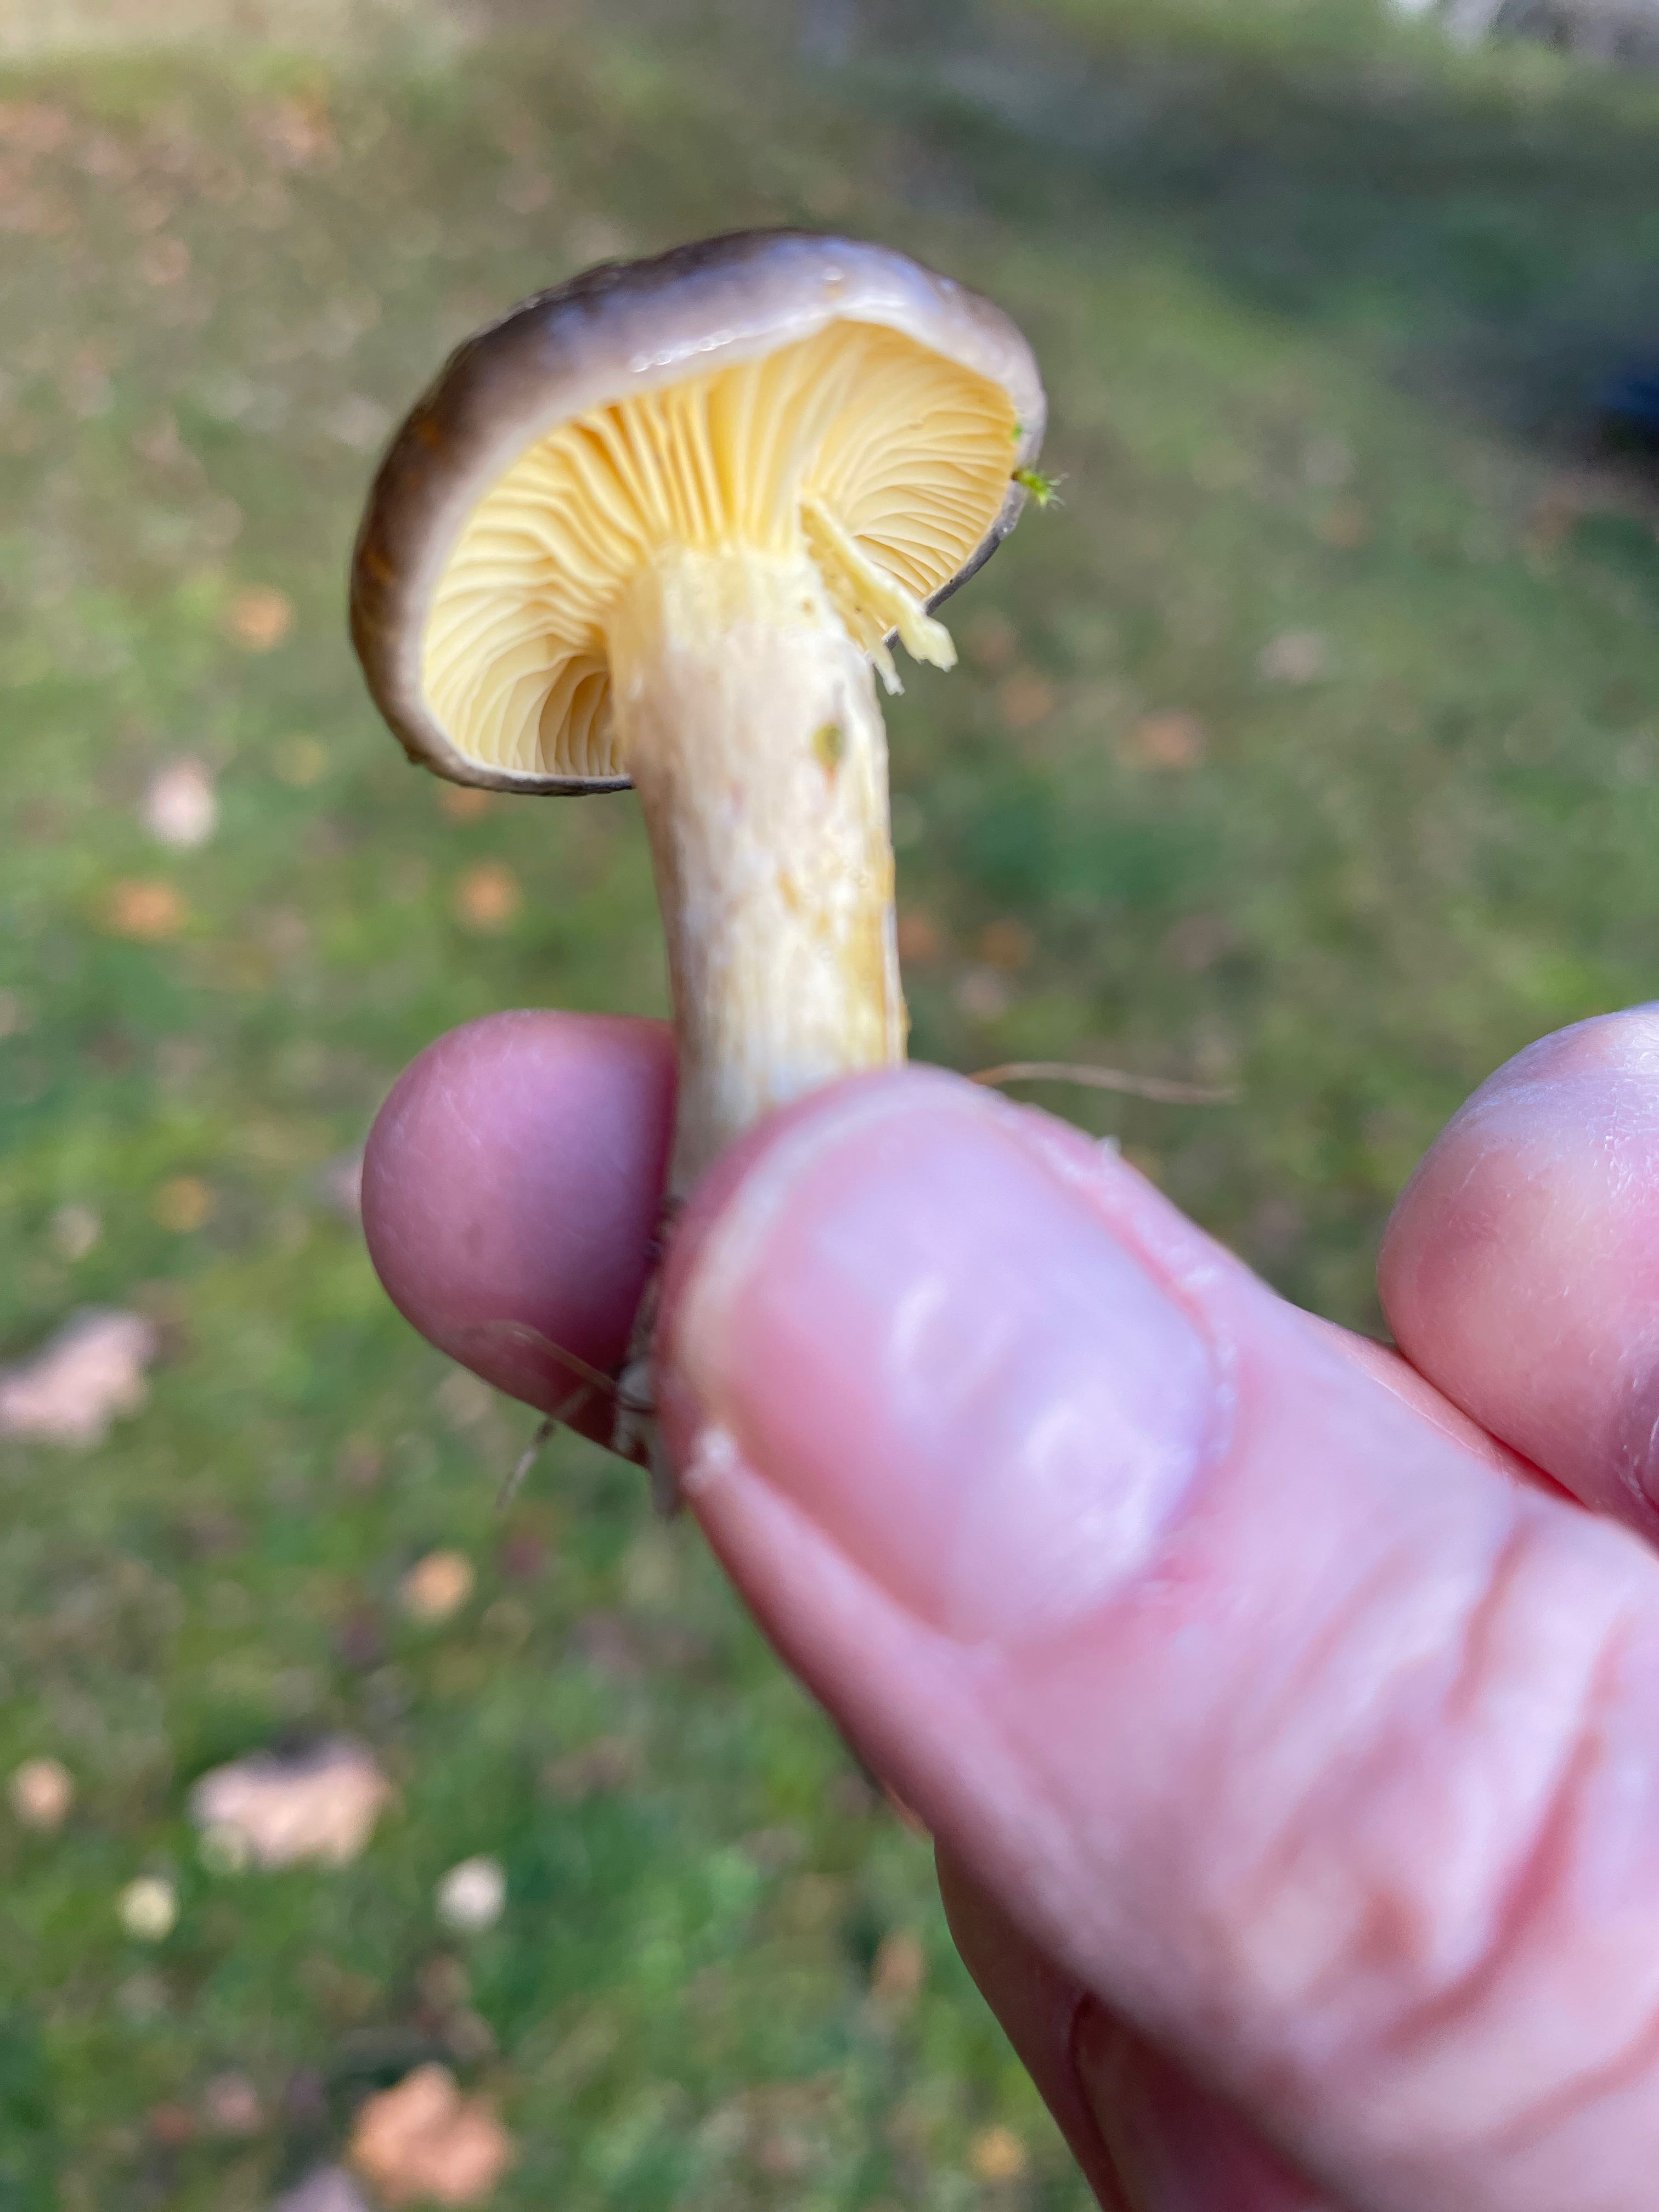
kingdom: Fungi
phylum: Basidiomycota
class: Agaricomycetes
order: Agaricales
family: Hygrophoraceae
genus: Hygrophorus
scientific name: Hygrophorus hypothejus
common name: frost-sneglehat
